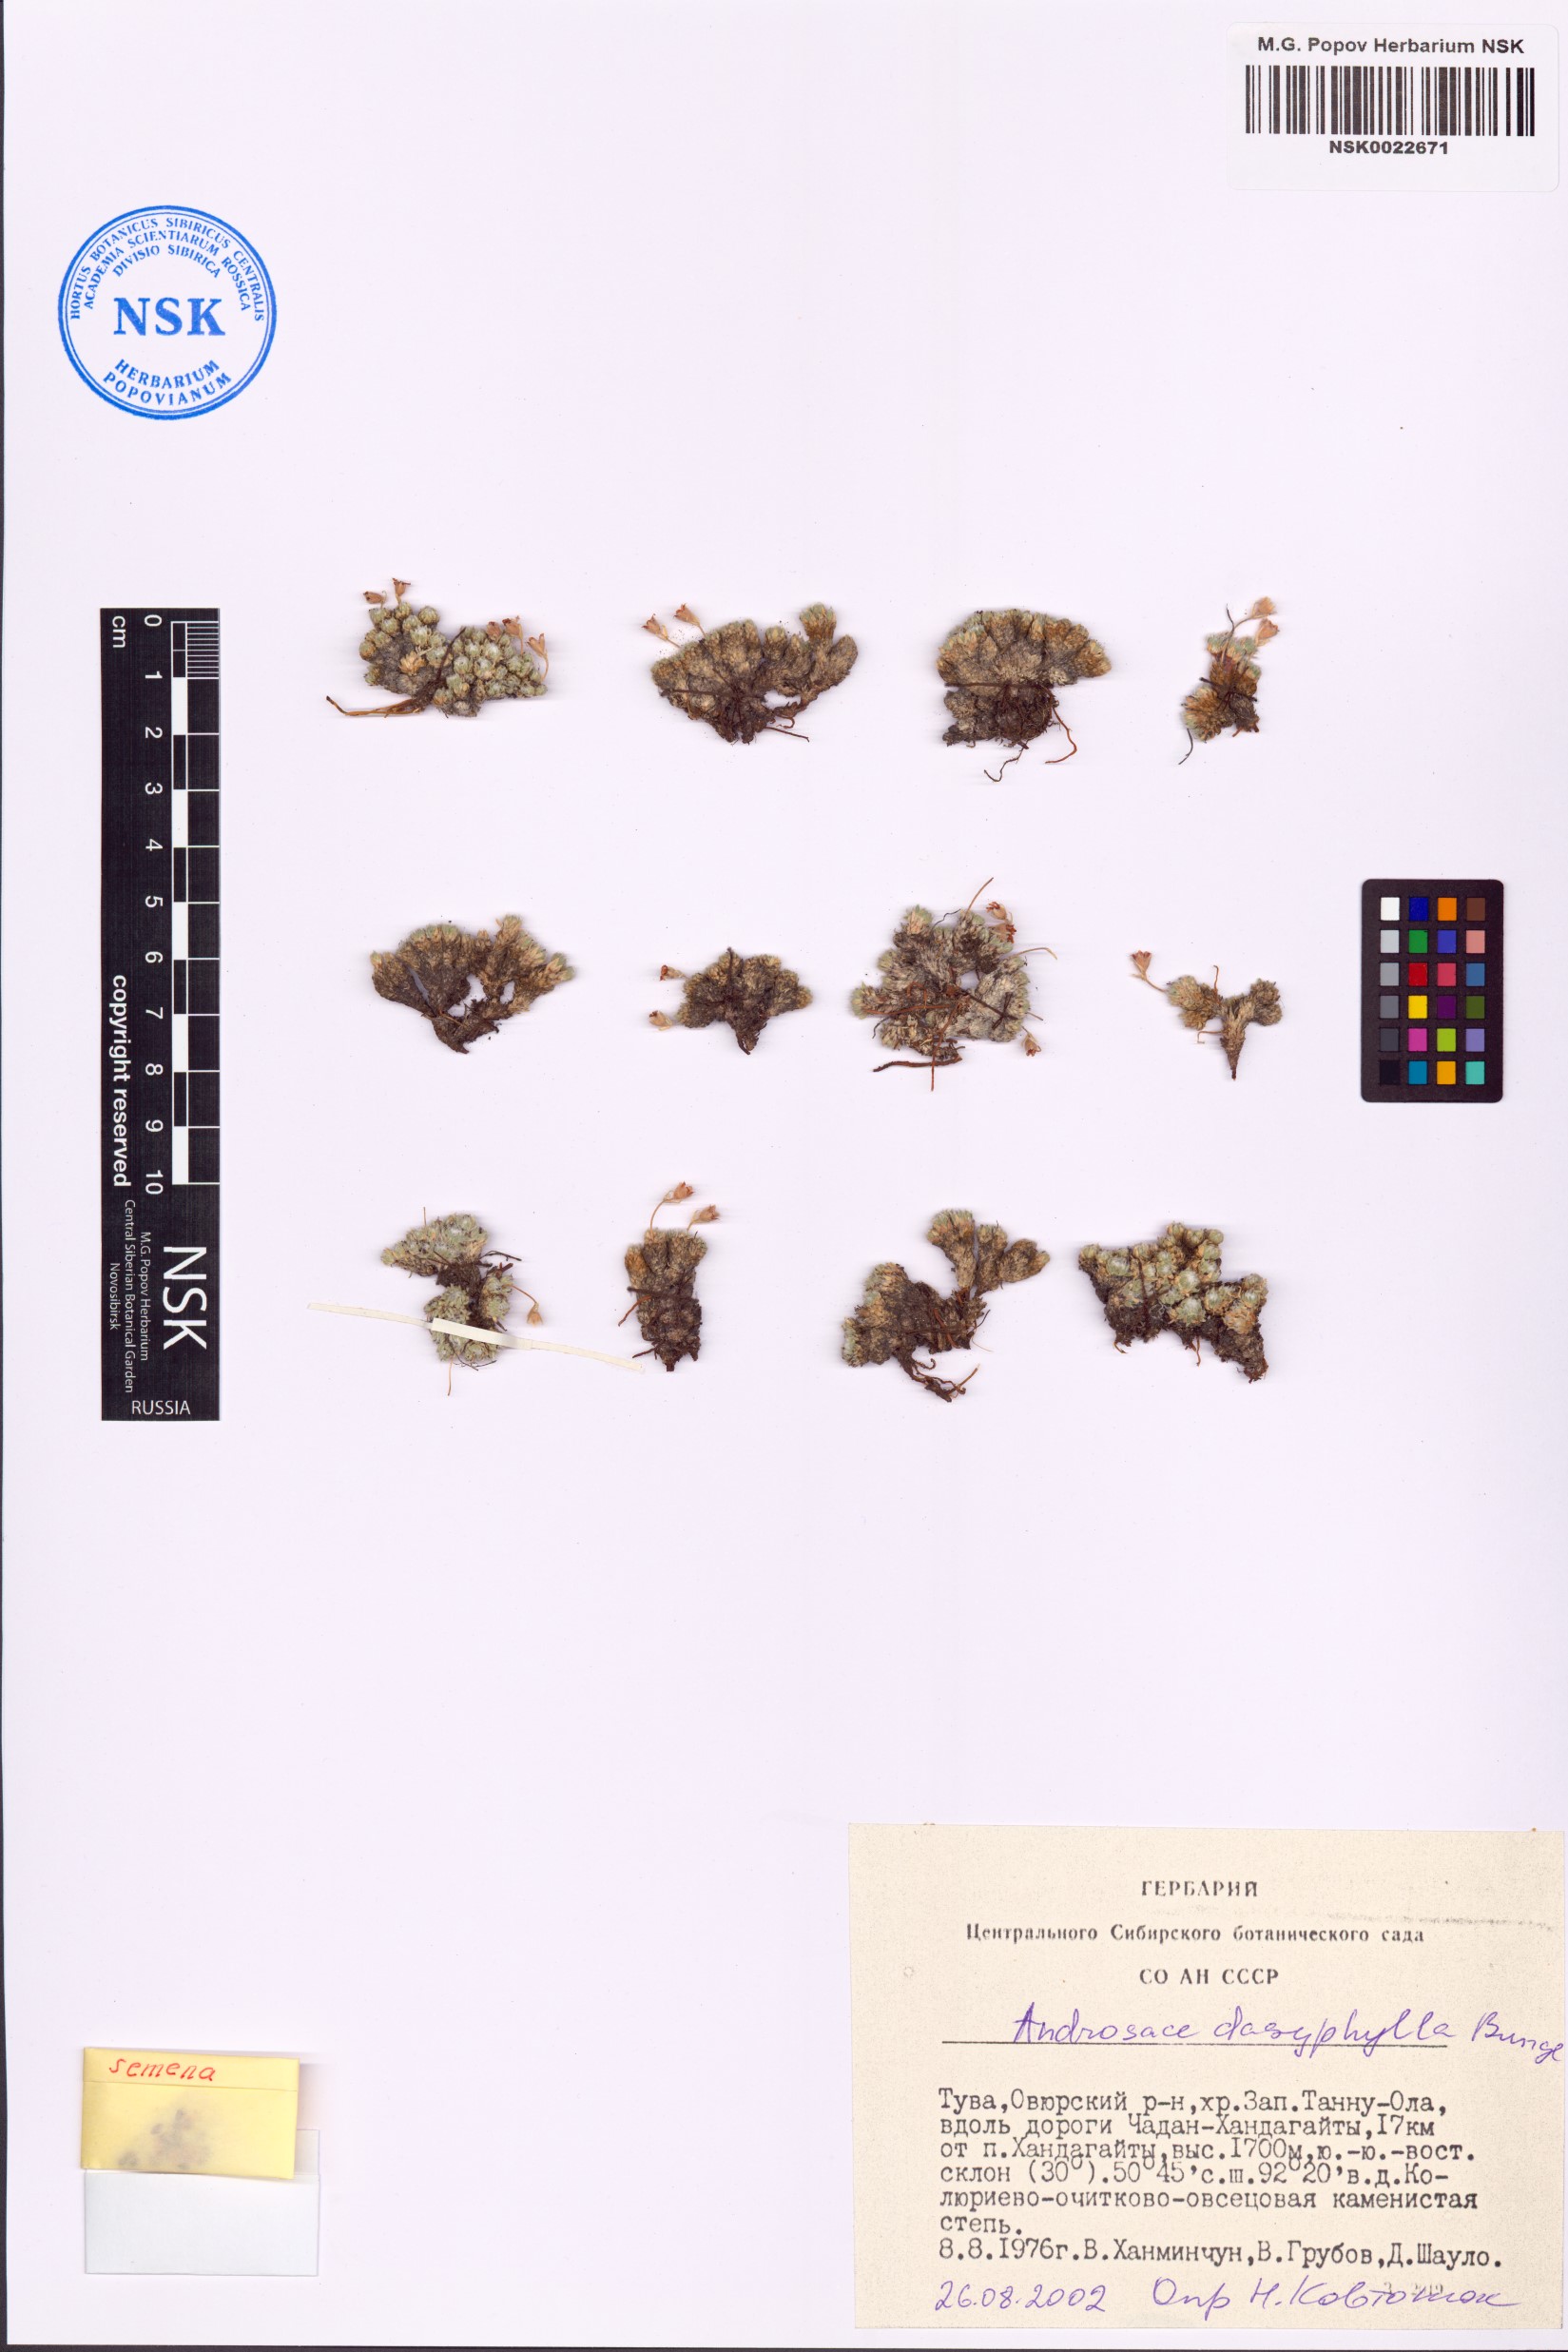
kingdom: Plantae
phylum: Tracheophyta
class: Magnoliopsida
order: Ericales
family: Primulaceae
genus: Androsace
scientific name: Androsace dasyphylla
